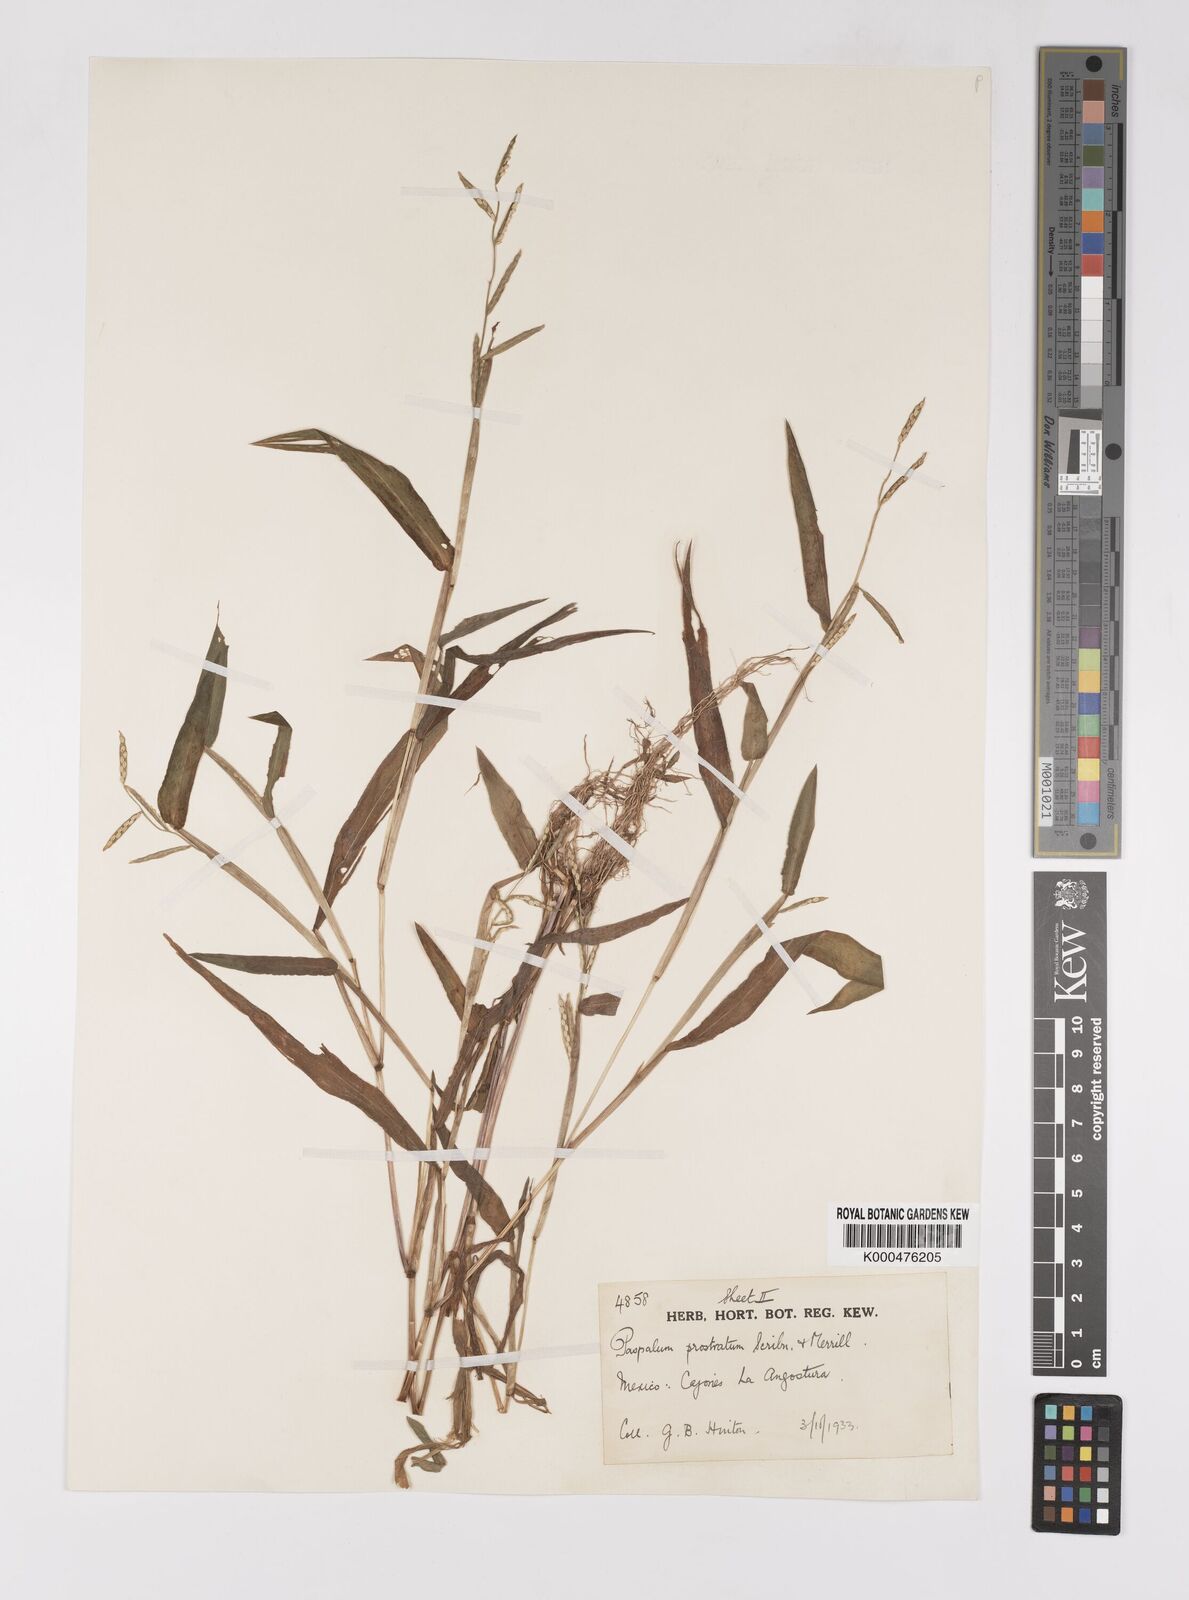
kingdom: Plantae
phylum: Tracheophyta
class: Liliopsida
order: Poales
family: Poaceae
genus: Paspalum
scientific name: Paspalum prostratum
